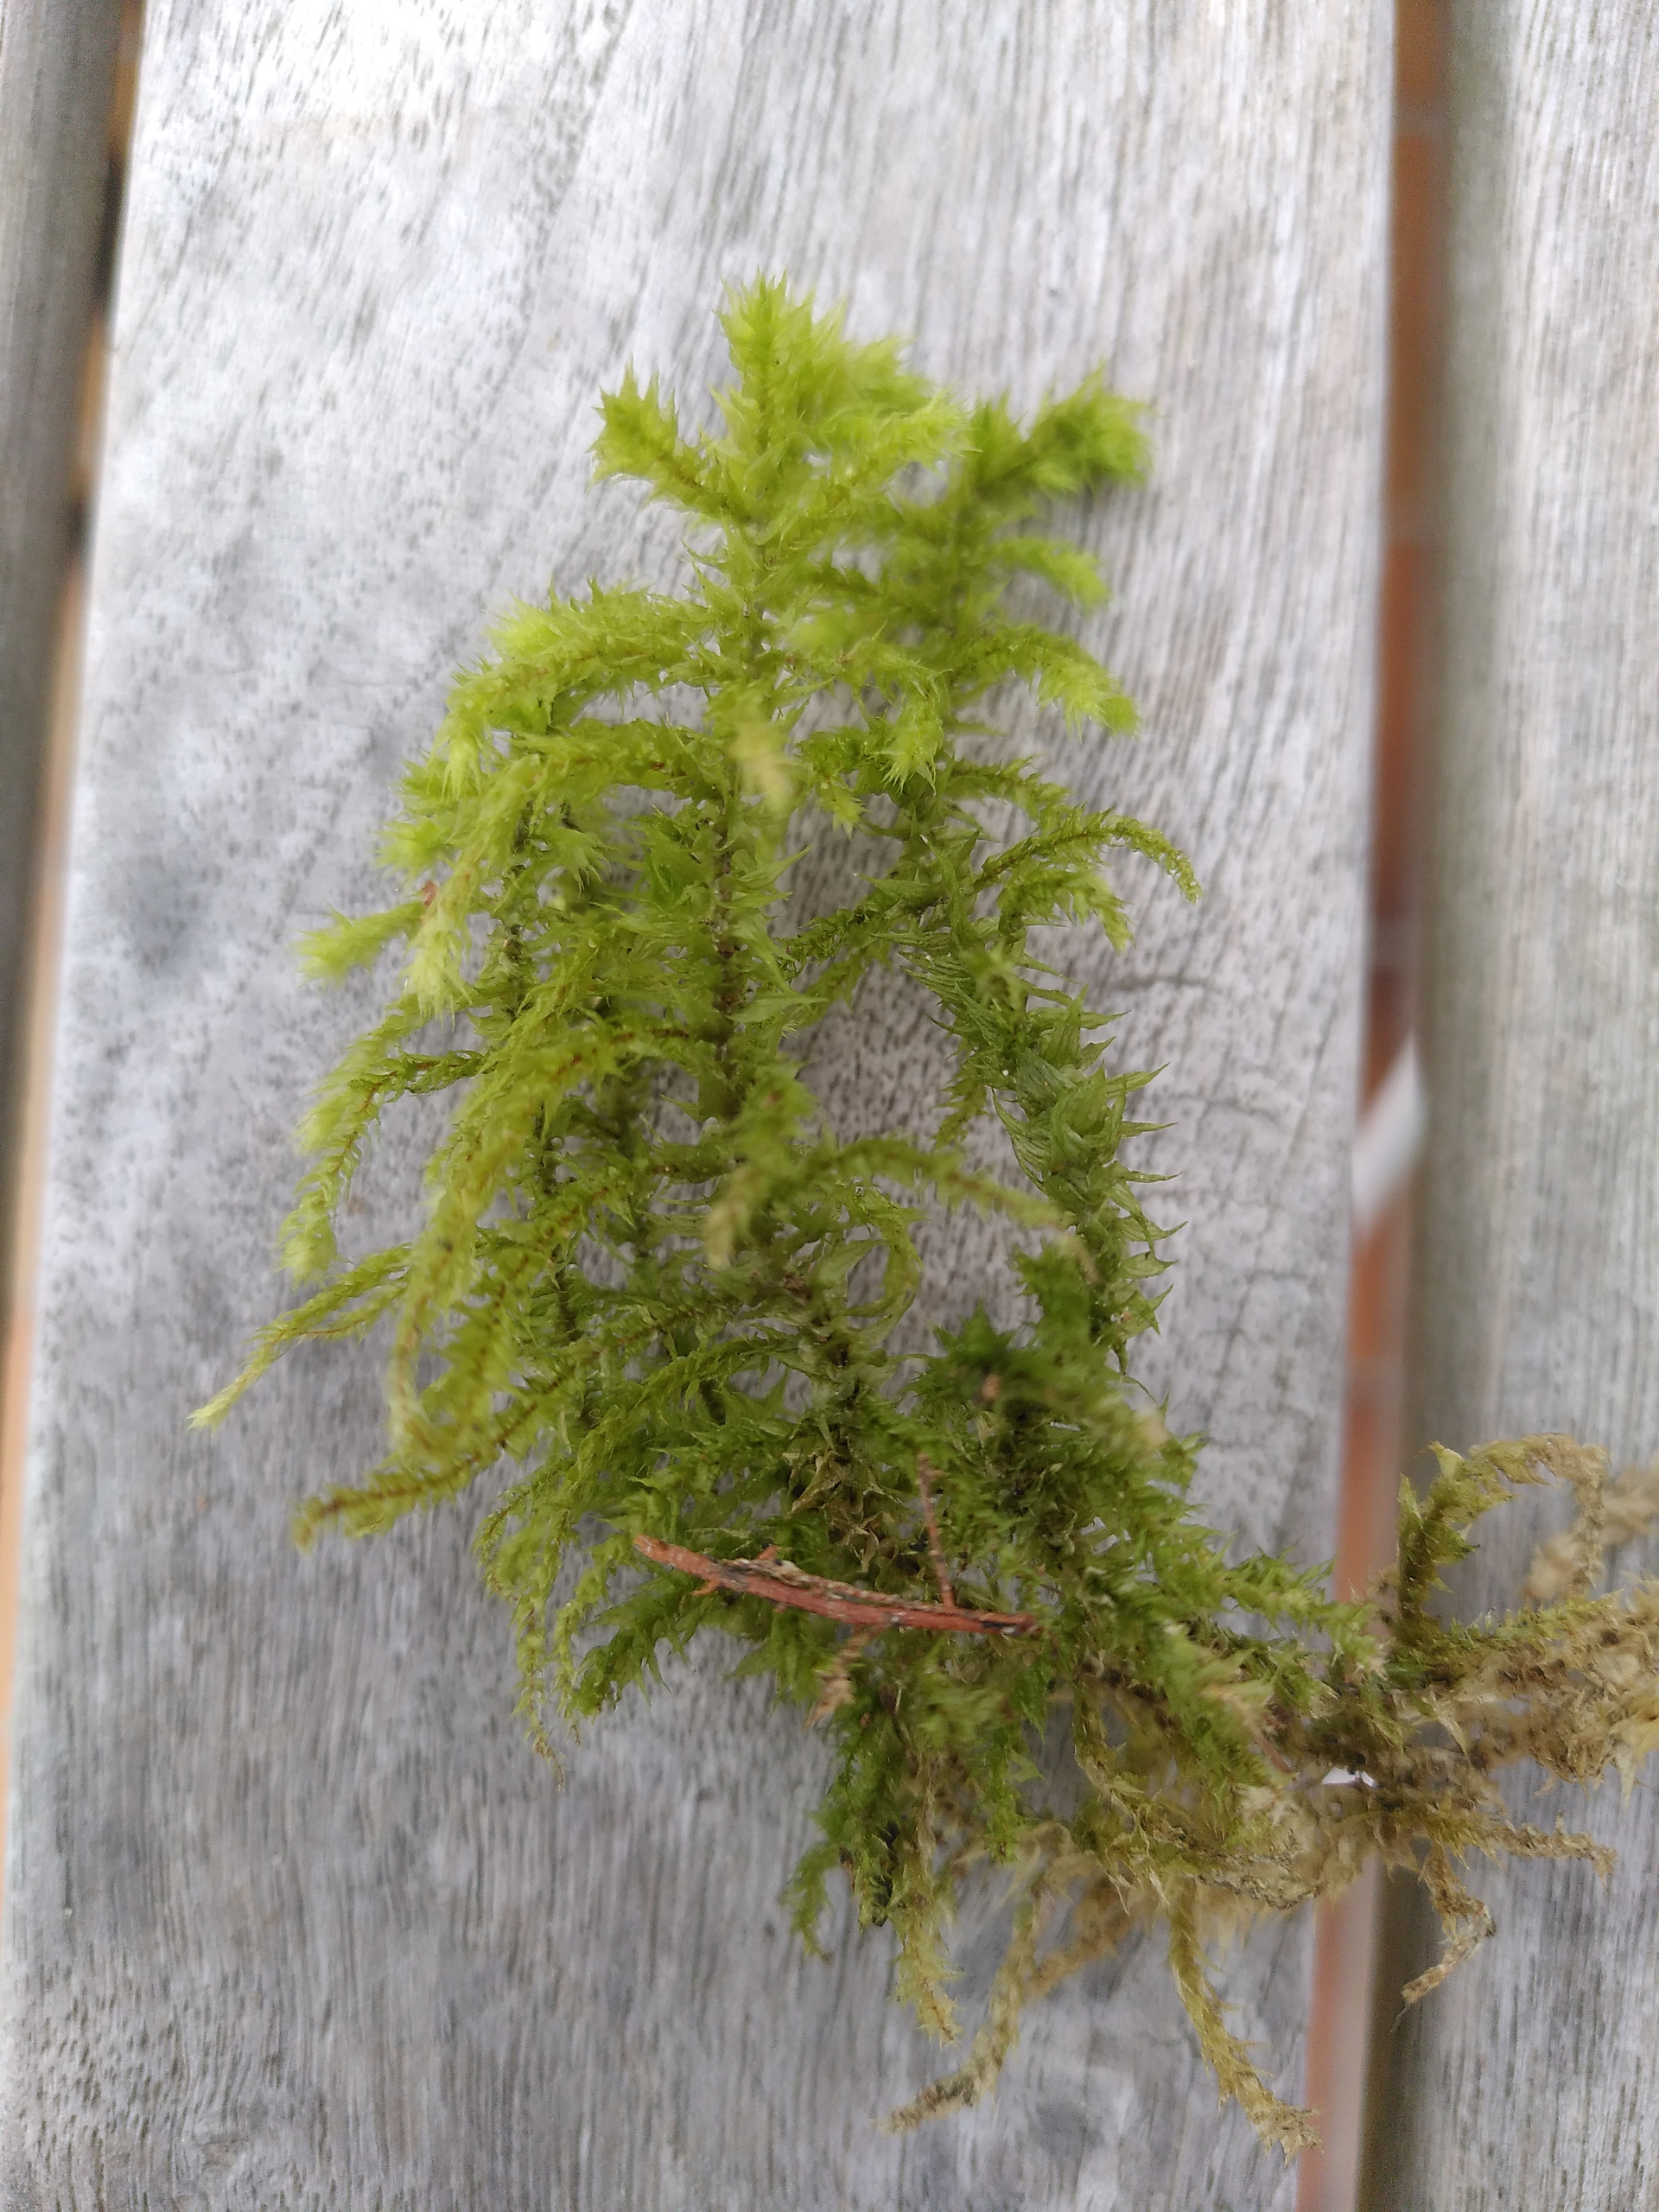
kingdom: Plantae
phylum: Bryophyta
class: Bryopsida
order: Hypnales
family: Hylocomiaceae
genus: Hylocomiadelphus
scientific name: Hylocomiadelphus triquetrus
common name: Stor kransemos
